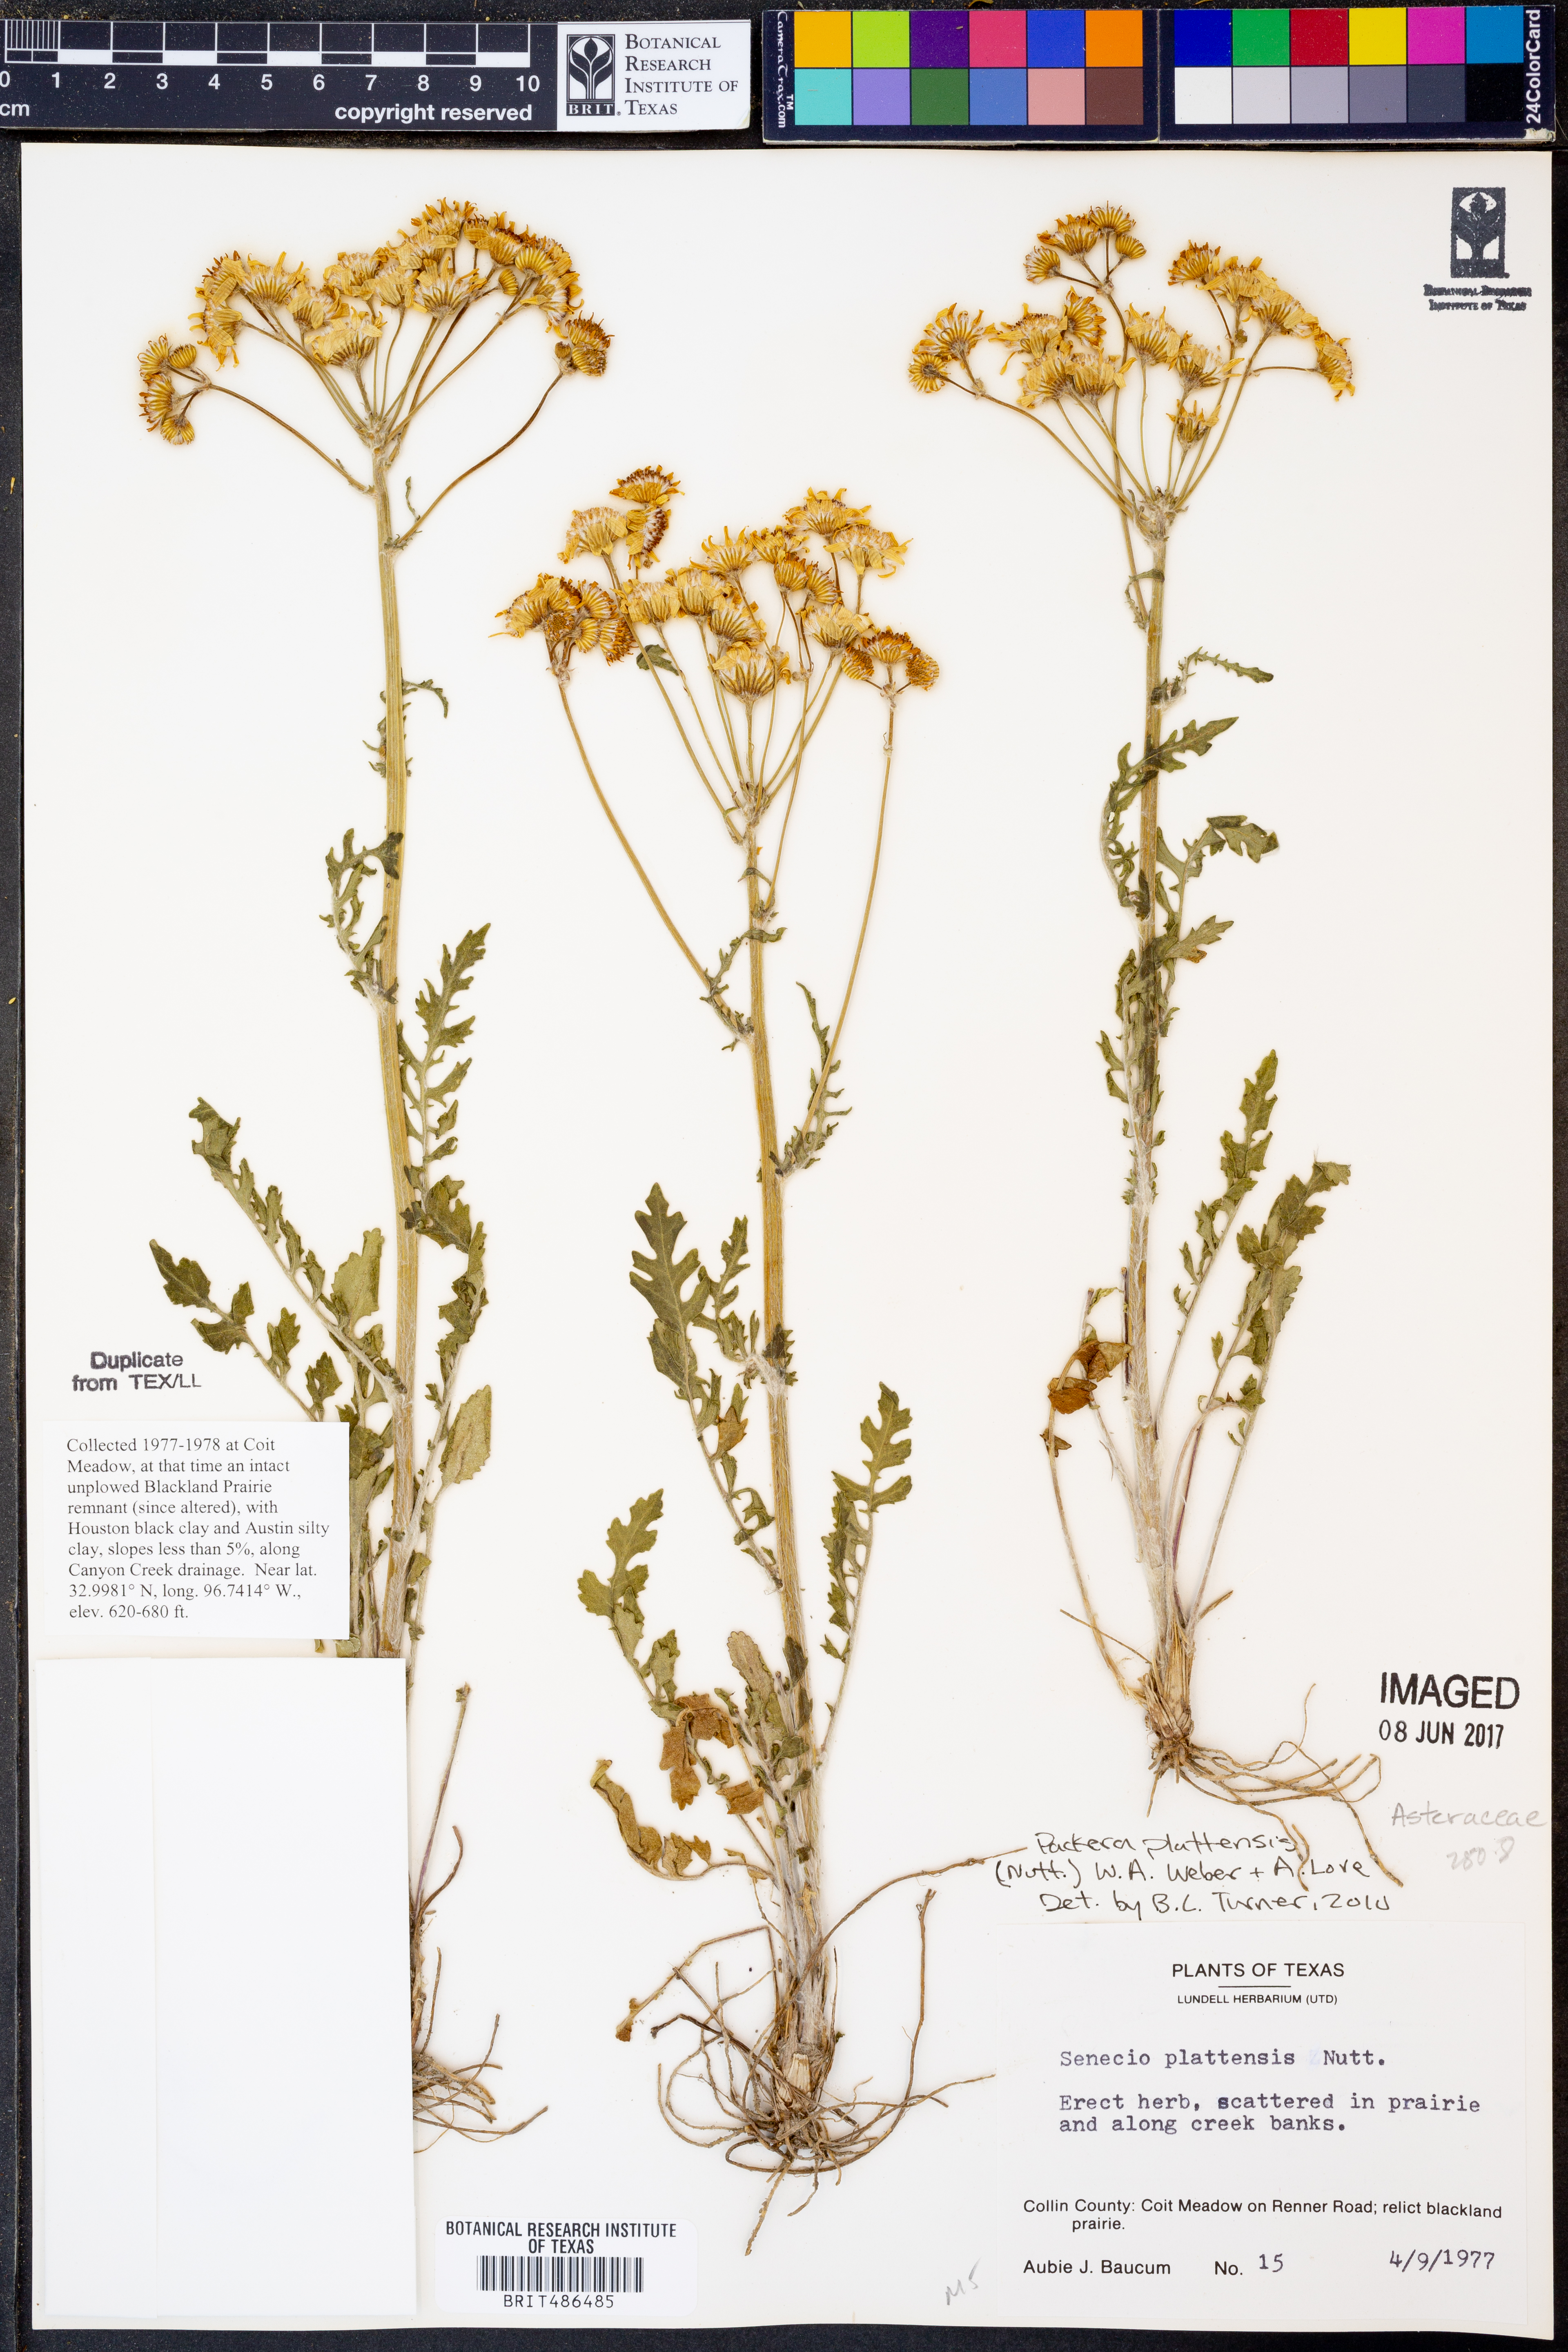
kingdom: Plantae
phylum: Tracheophyta
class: Magnoliopsida
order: Asterales
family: Asteraceae
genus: Packera
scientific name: Packera plattensis
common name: Prairie groundsel
